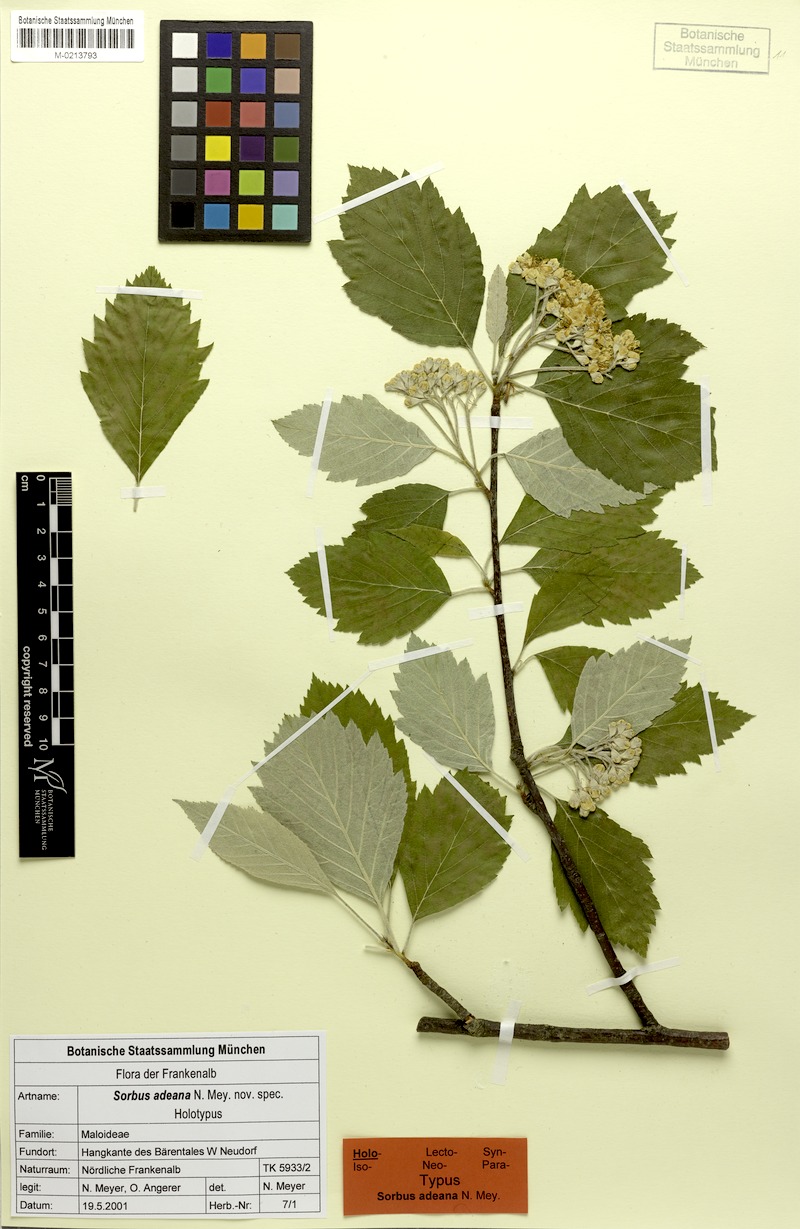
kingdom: Plantae
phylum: Tracheophyta
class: Magnoliopsida
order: Rosales
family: Rosaceae
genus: Karpatiosorbus
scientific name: Karpatiosorbus adeana
